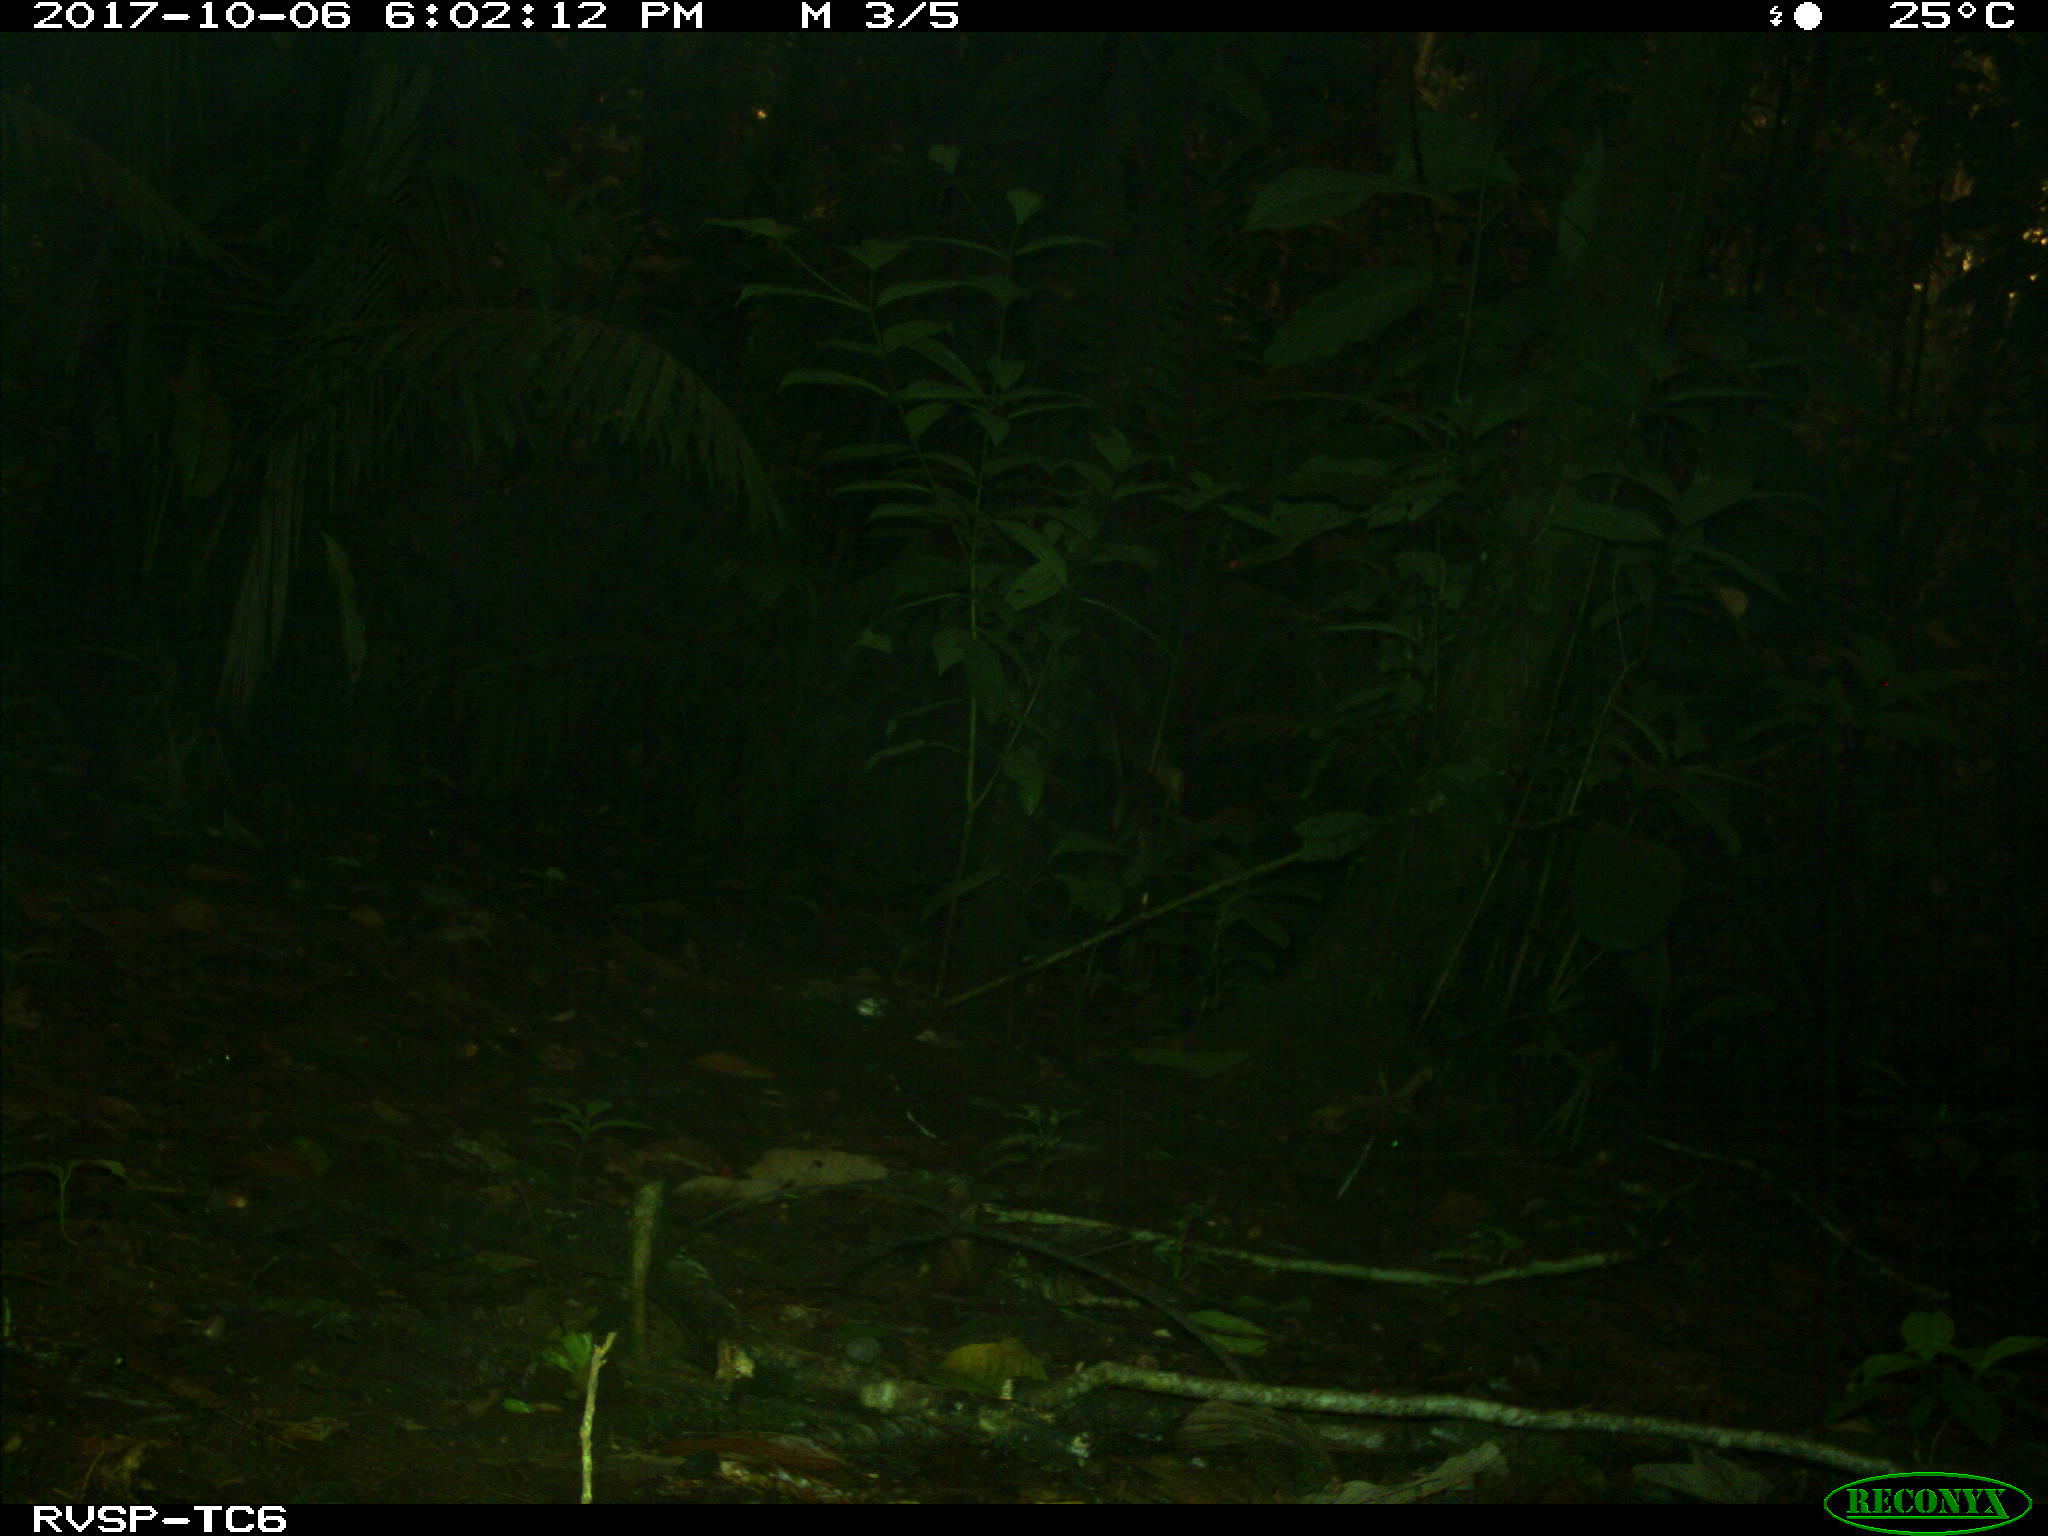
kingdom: Animalia
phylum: Chordata
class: Mammalia
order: Artiodactyla
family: Tayassuidae
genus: Tayassu
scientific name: Tayassu pecari
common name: White-lipped peccary
